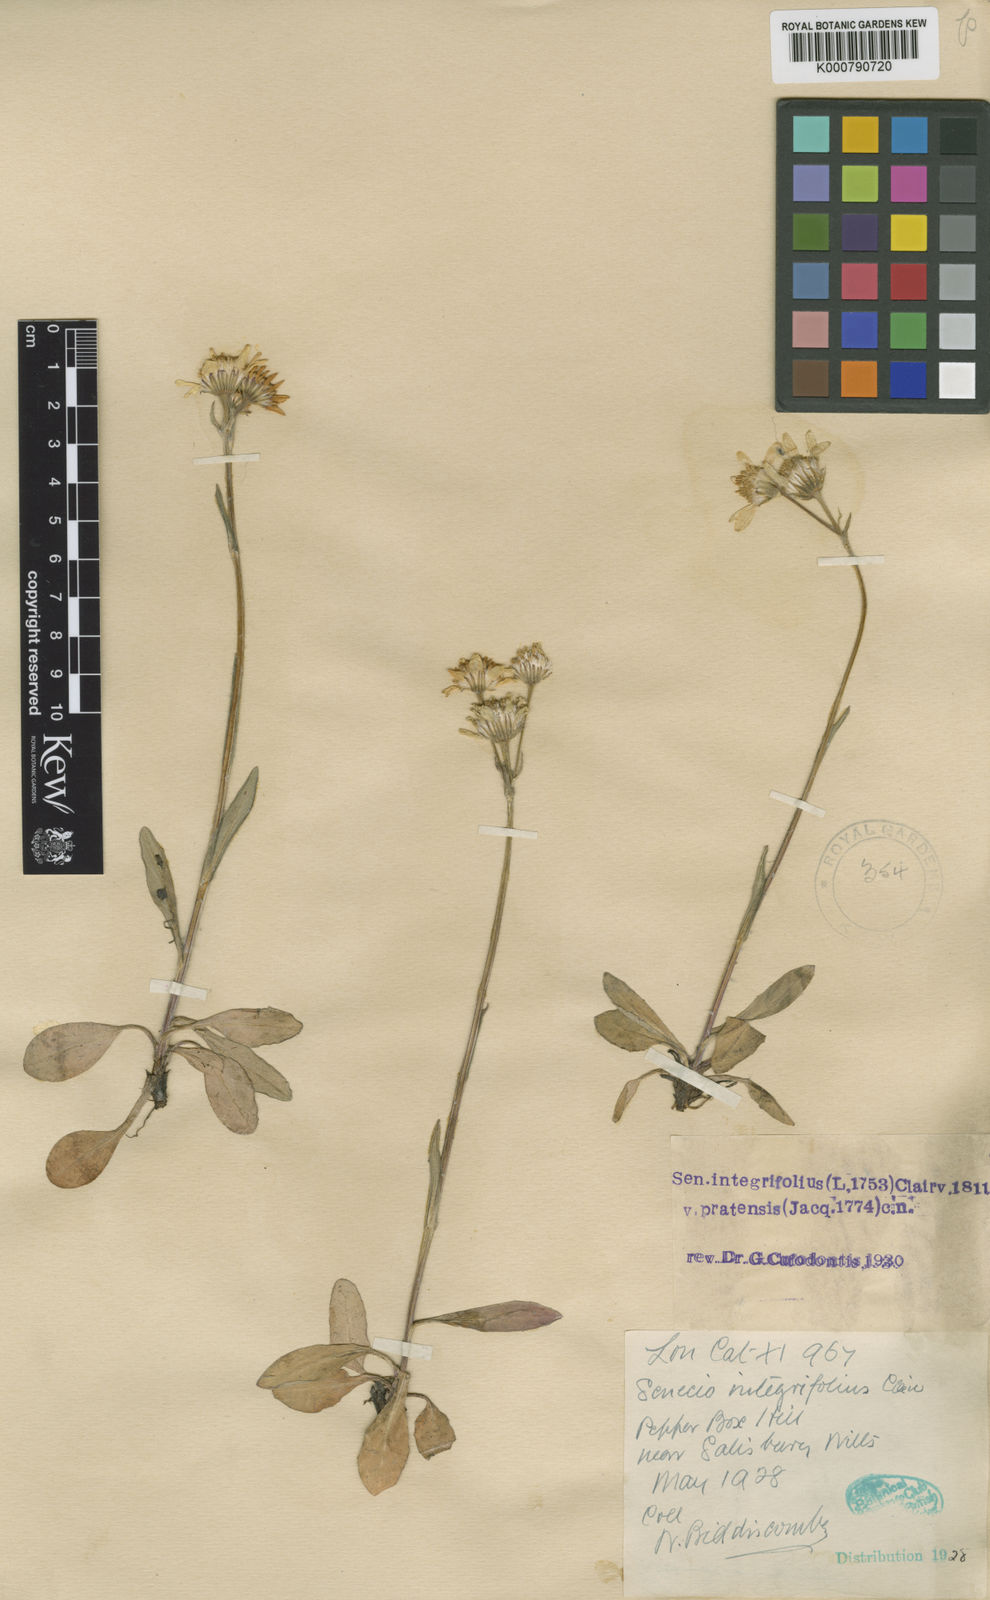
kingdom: Plantae
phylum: Tracheophyta
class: Magnoliopsida
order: Asterales
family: Asteraceae
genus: Tephroseris
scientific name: Tephroseris integrifolia
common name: Field fleawort
